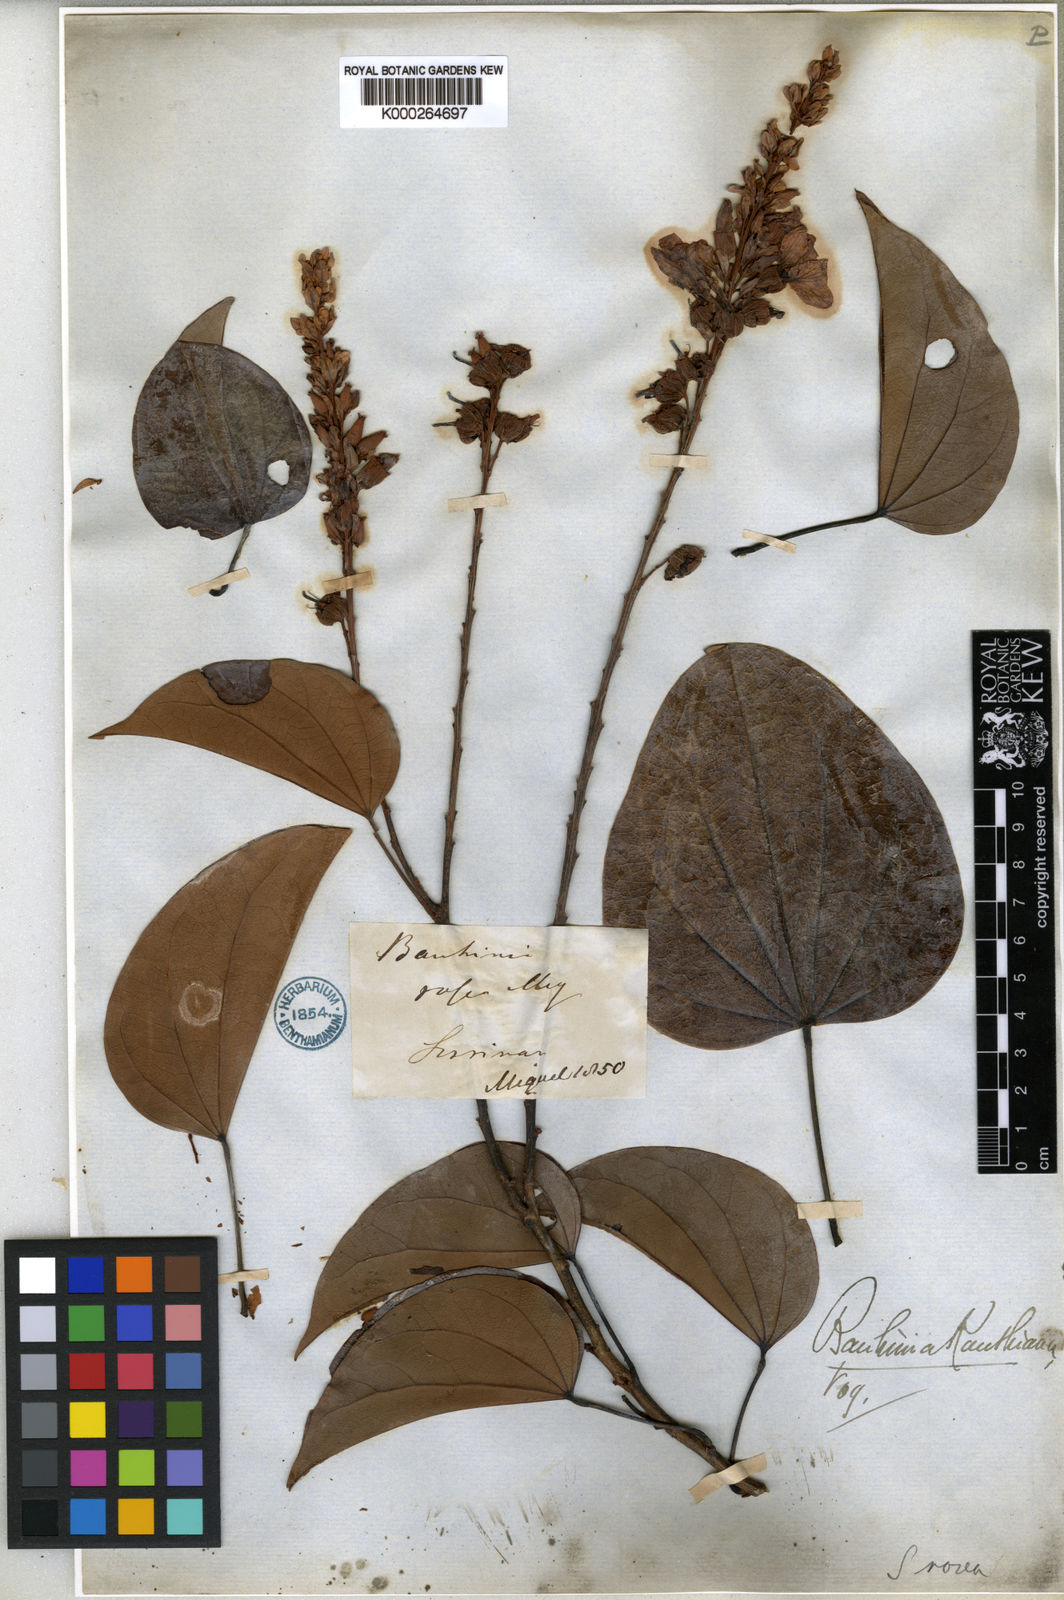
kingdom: Plantae
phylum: Tracheophyta
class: Magnoliopsida
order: Fabales
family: Fabaceae
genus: Schnella
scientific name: Schnella kunthiana
